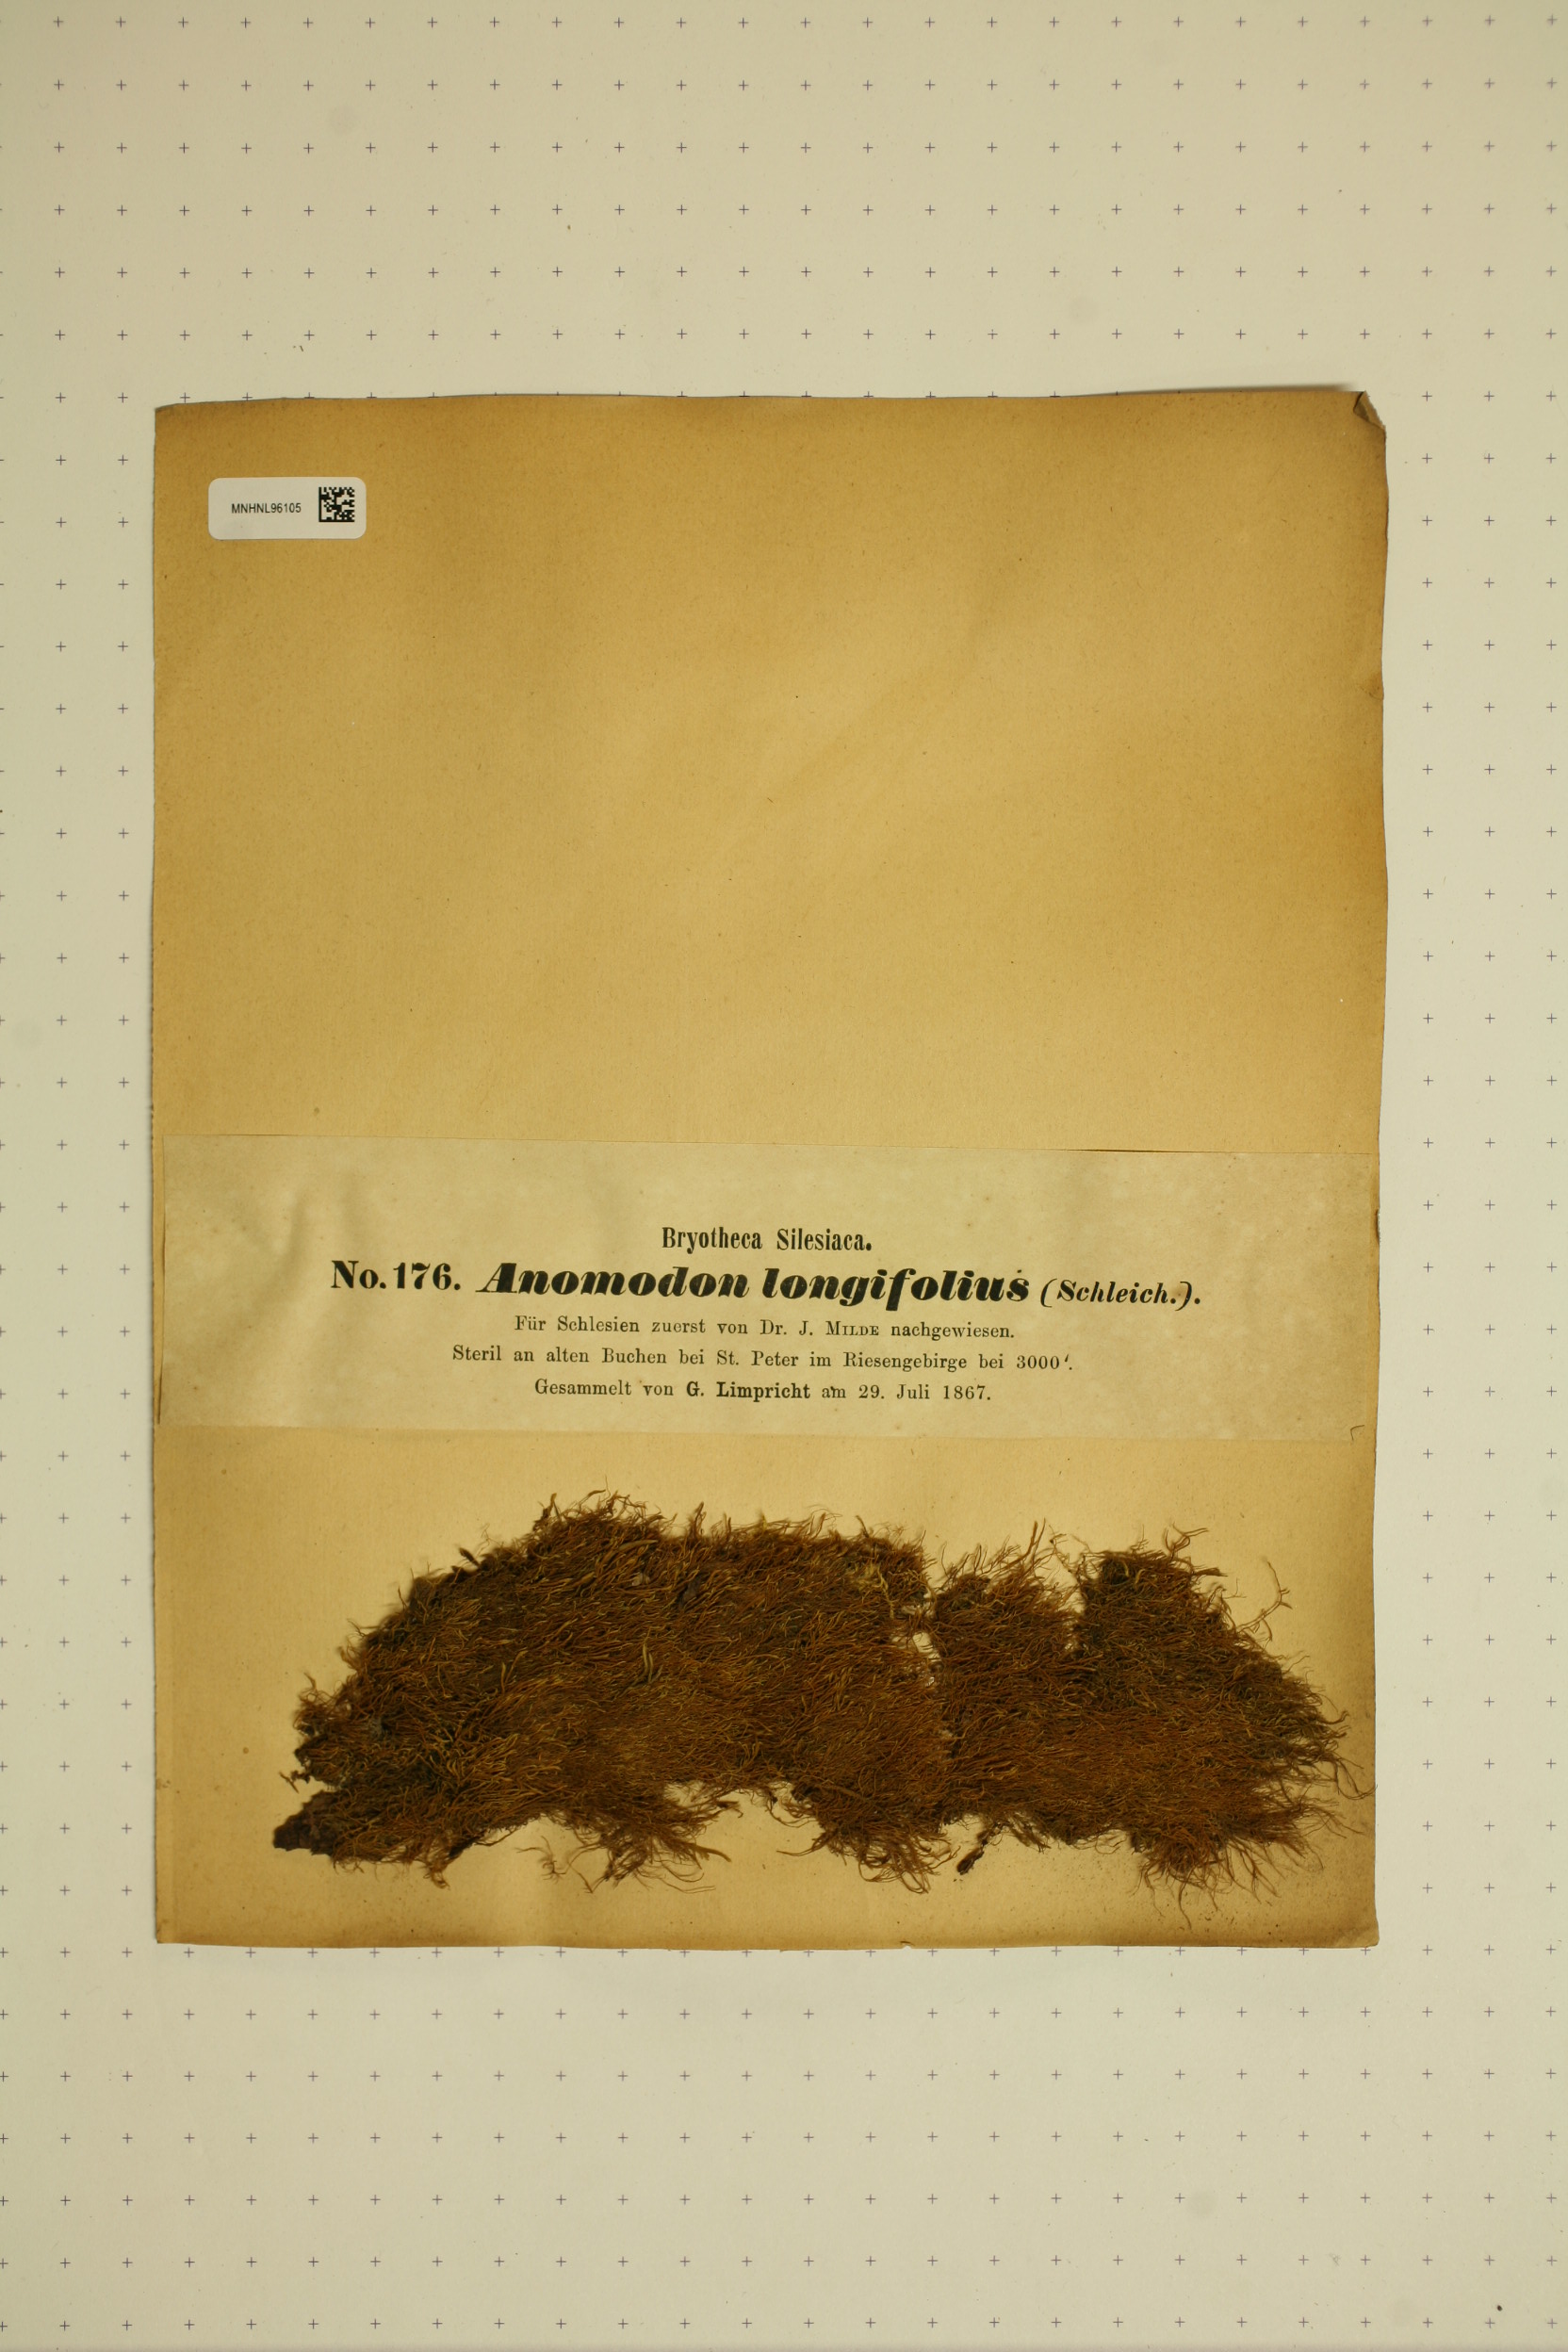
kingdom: Plantae
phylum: Bryophyta
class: Bryopsida
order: Hypnales
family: Anomodontaceae
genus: Anomodontella
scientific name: Anomodontella longifolia
